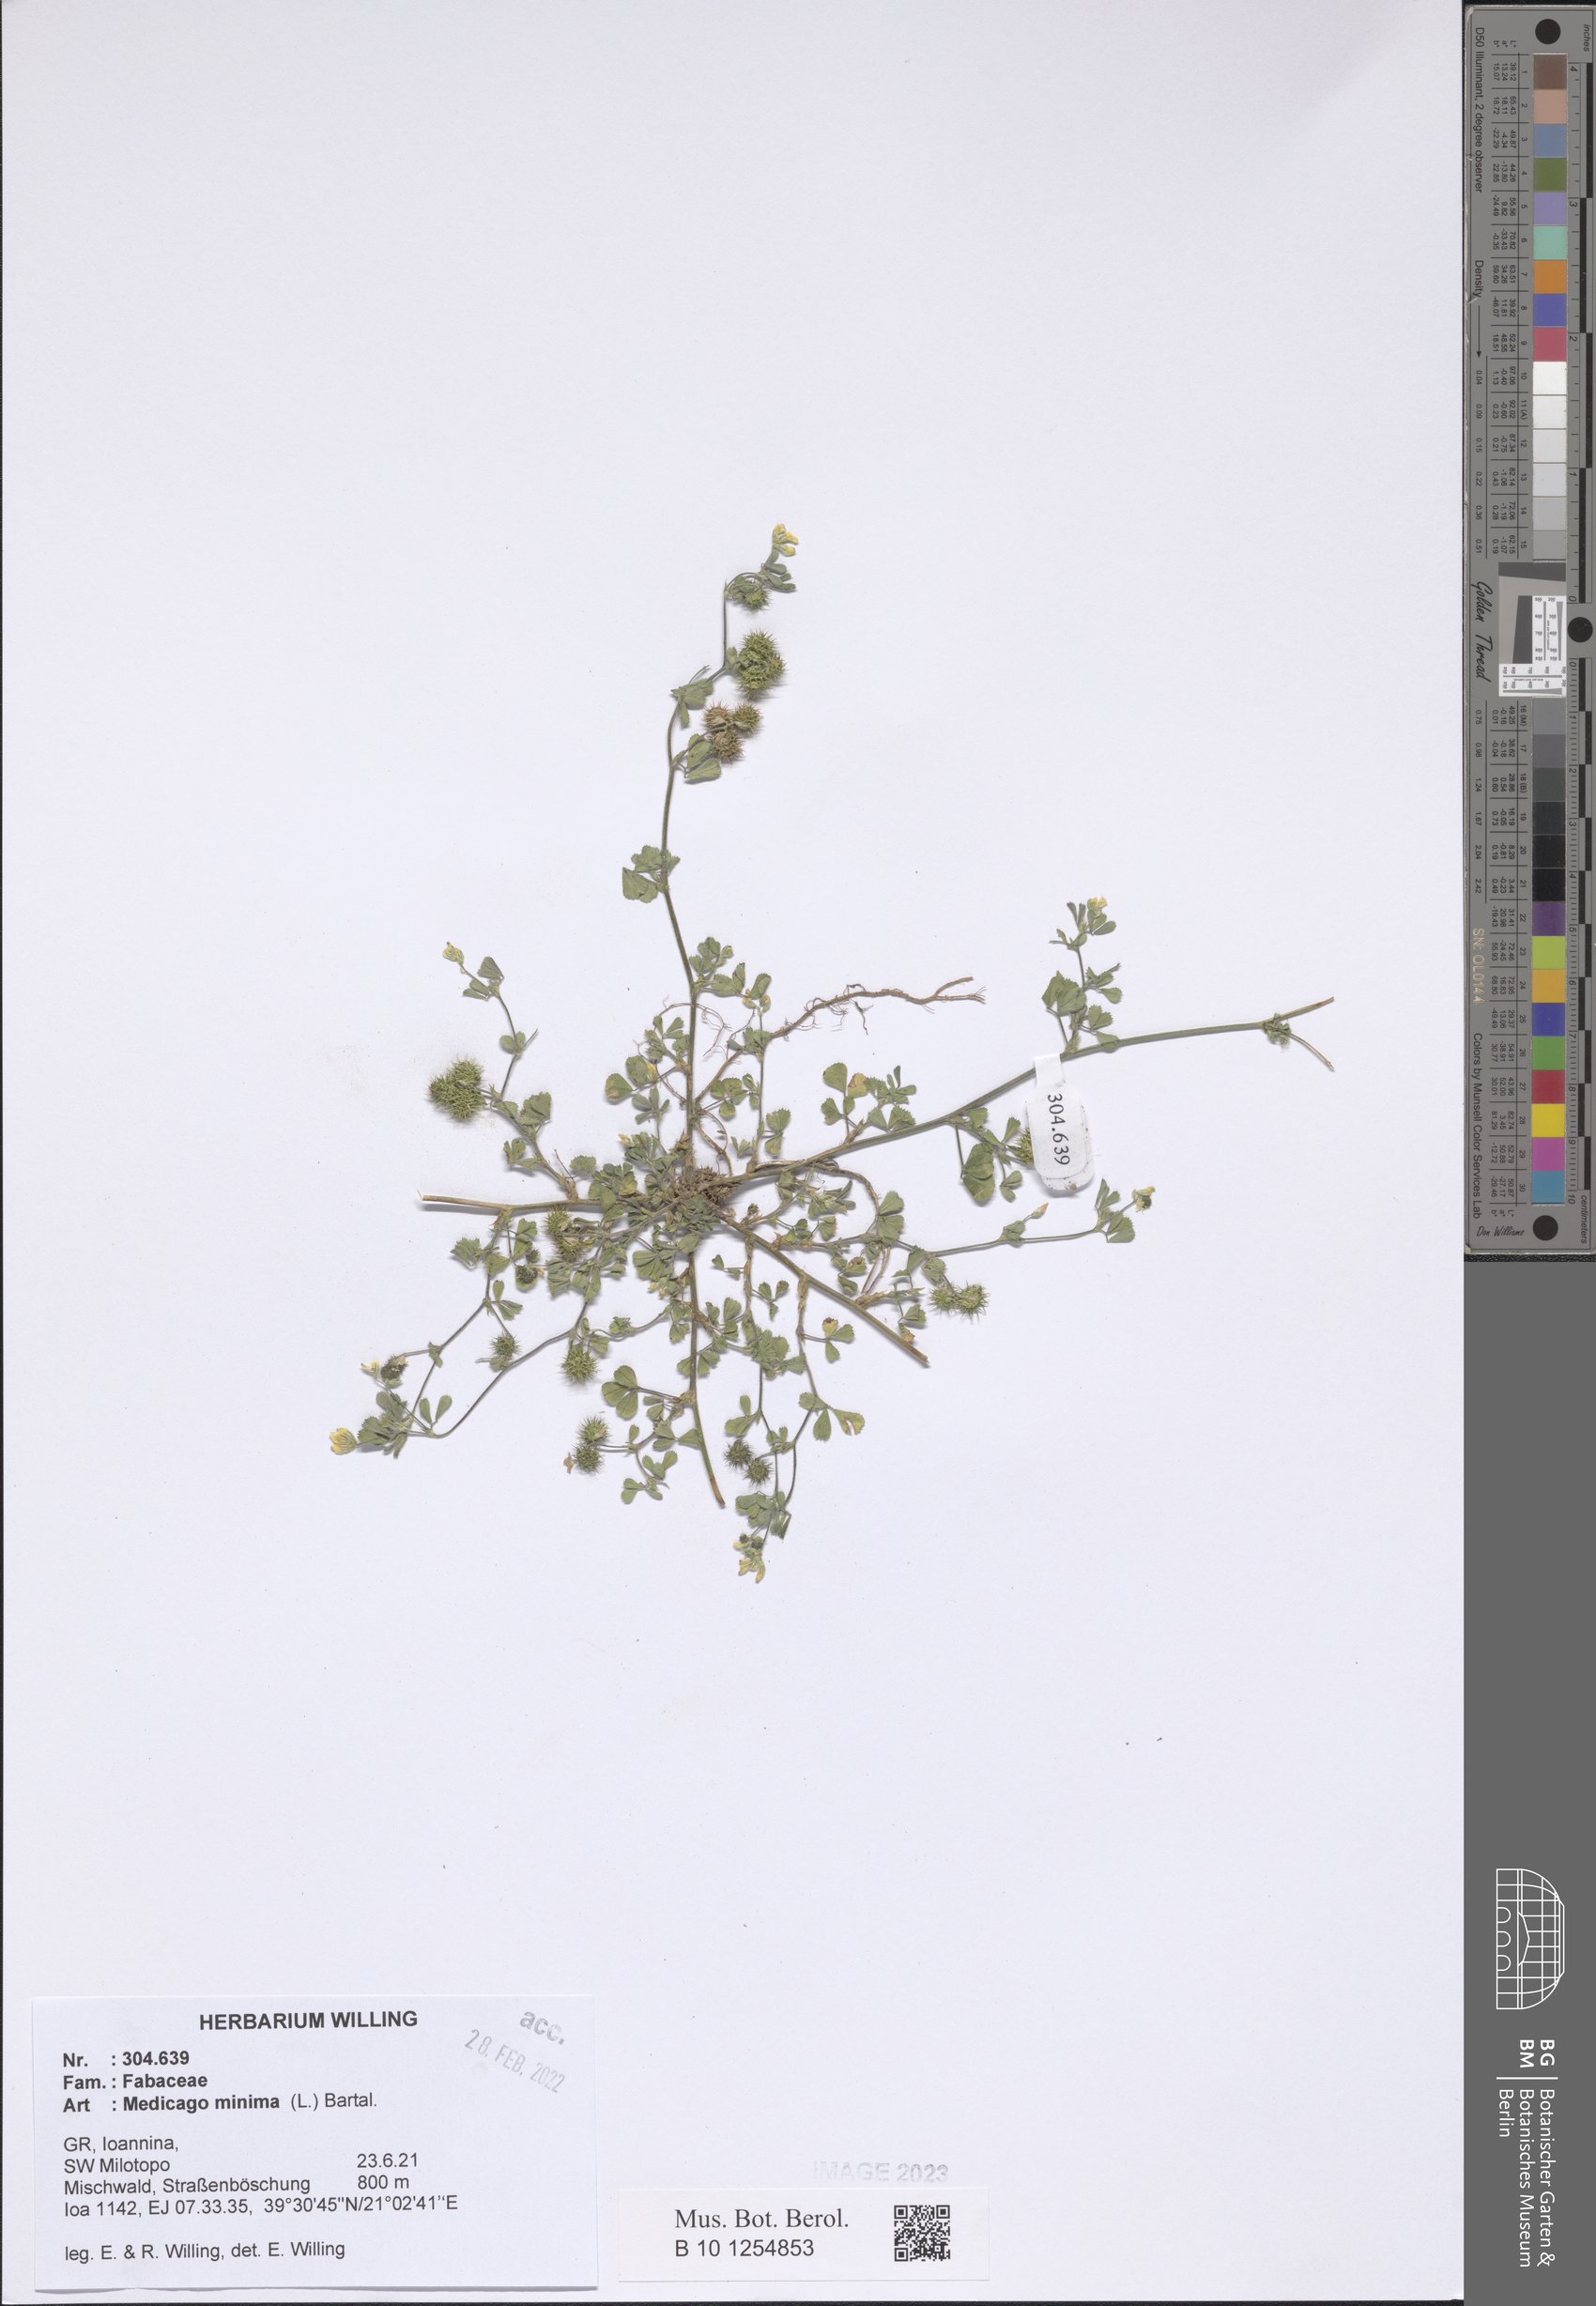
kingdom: Plantae
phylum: Tracheophyta
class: Magnoliopsida
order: Fabales
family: Fabaceae
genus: Medicago
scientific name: Medicago minima
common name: Little bur-clover
